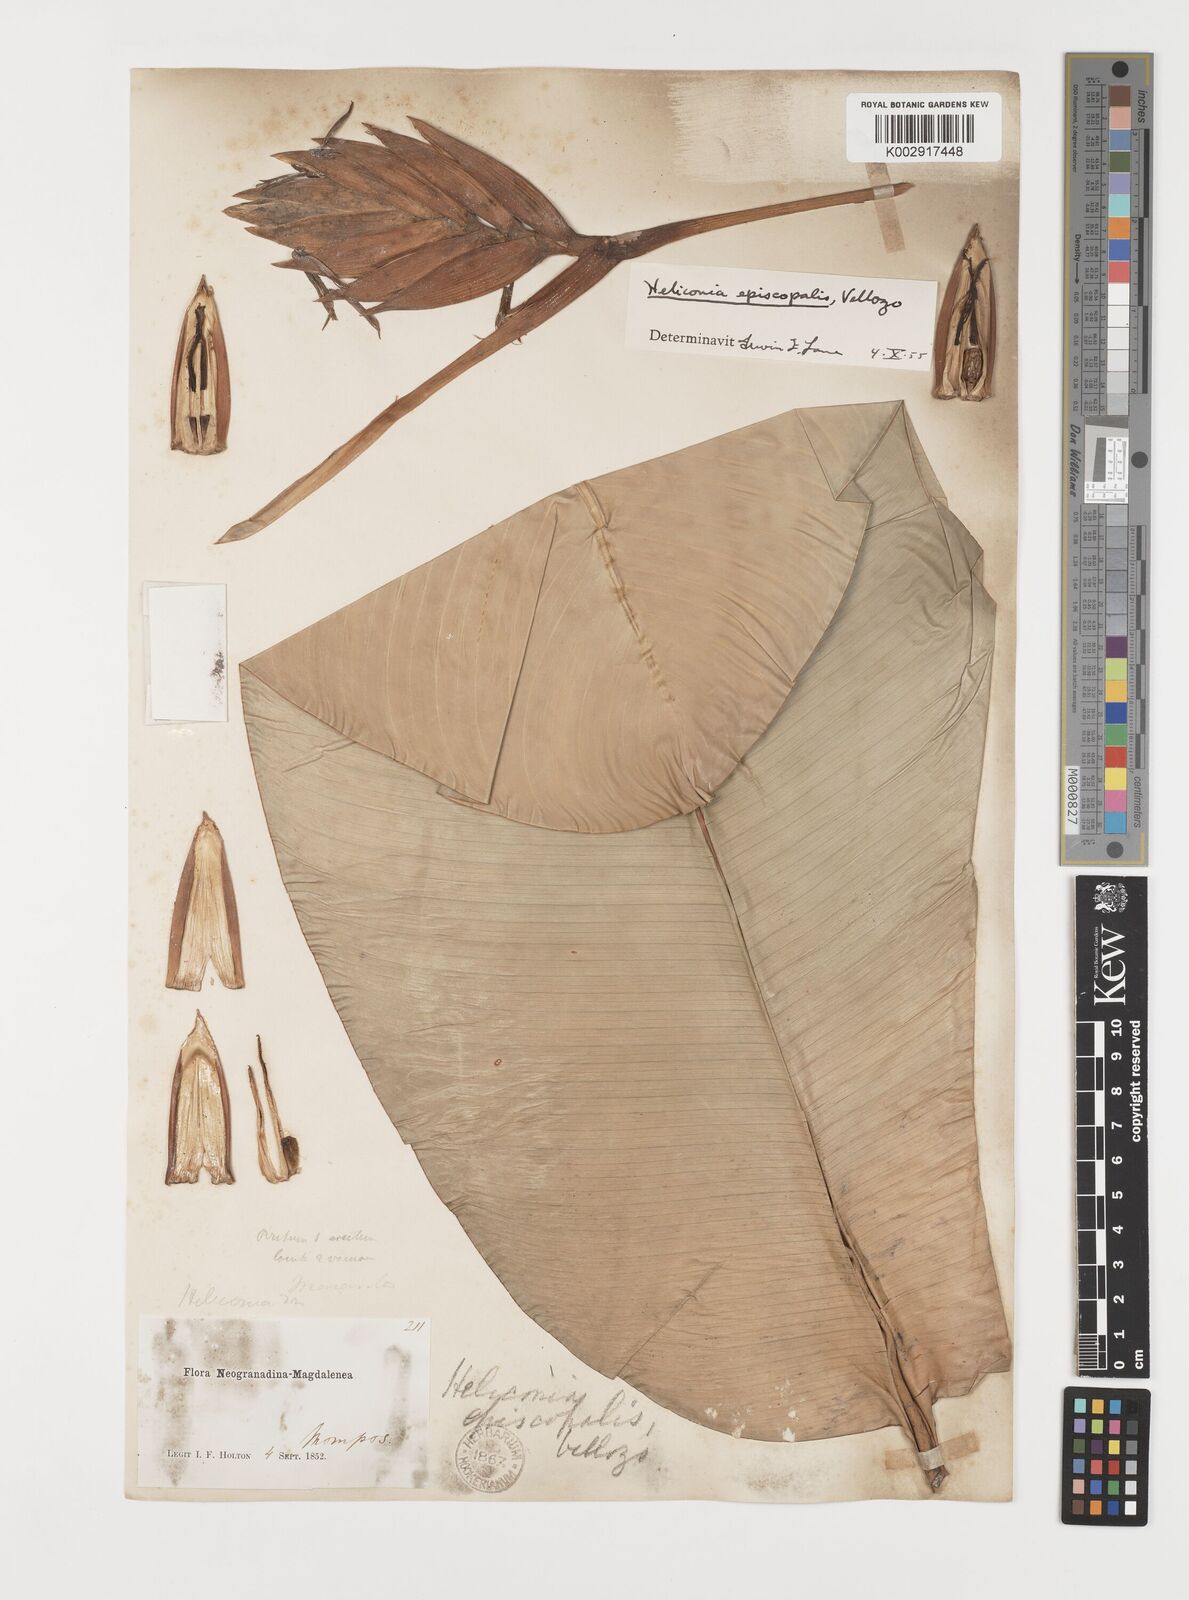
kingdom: Plantae
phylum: Tracheophyta
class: Liliopsida
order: Zingiberales
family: Heliconiaceae
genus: Heliconia
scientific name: Heliconia episcopalis
